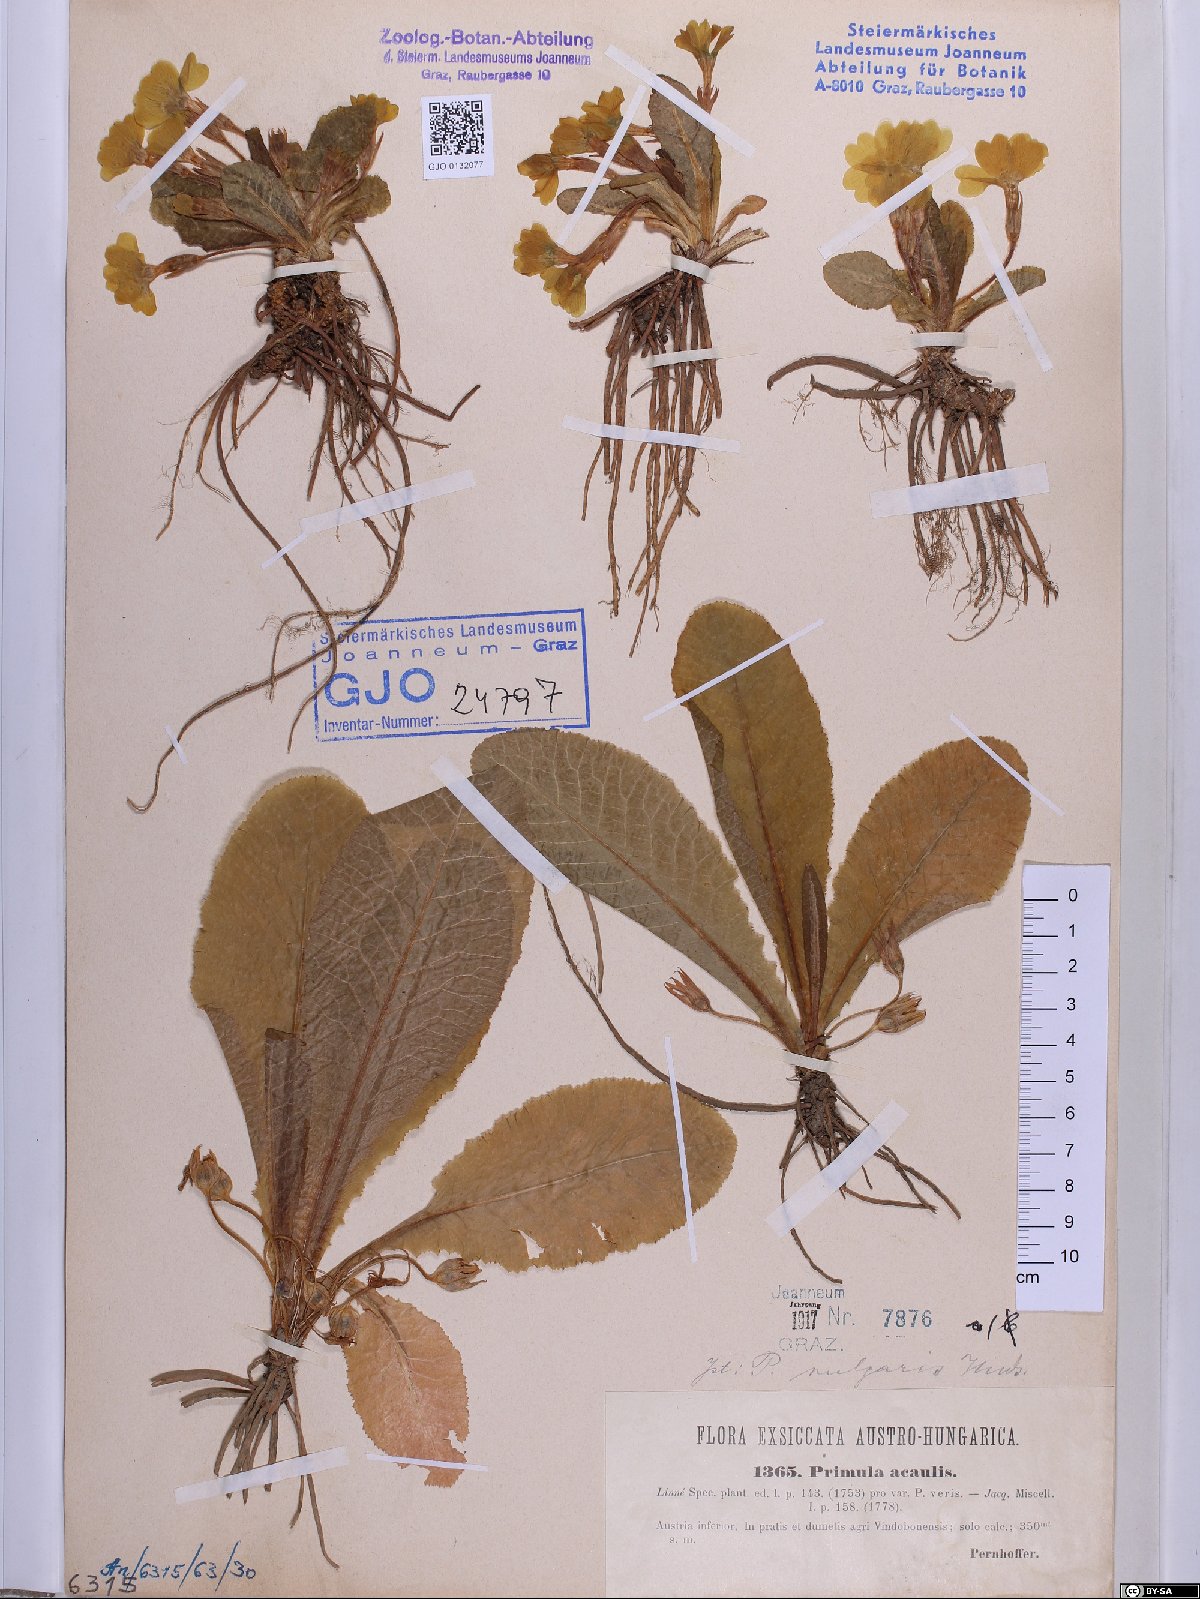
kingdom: Plantae
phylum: Tracheophyta
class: Magnoliopsida
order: Ericales
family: Primulaceae
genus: Primula
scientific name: Primula vulgaris
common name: Primrose
